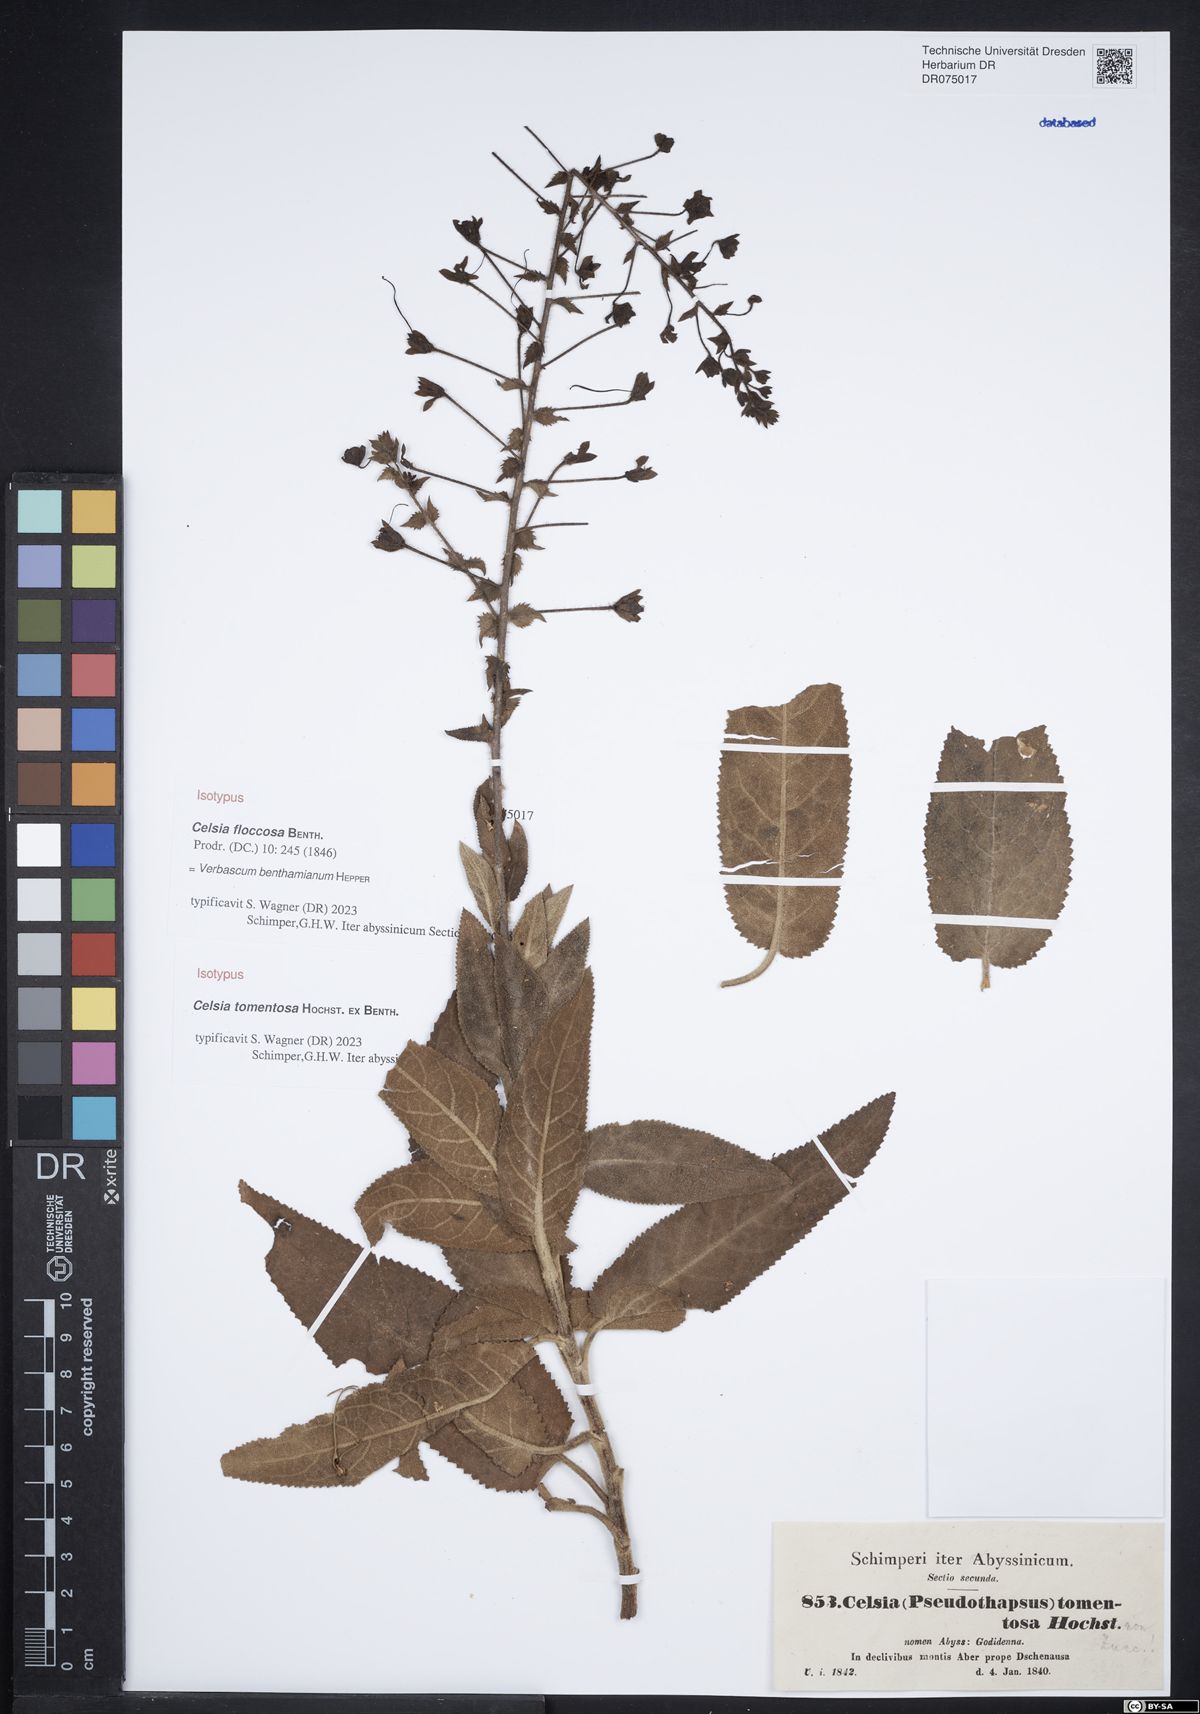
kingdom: Plantae
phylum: Tracheophyta
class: Magnoliopsida
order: Lamiales
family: Scrophulariaceae
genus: Verbascum
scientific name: Verbascum benthamianum
